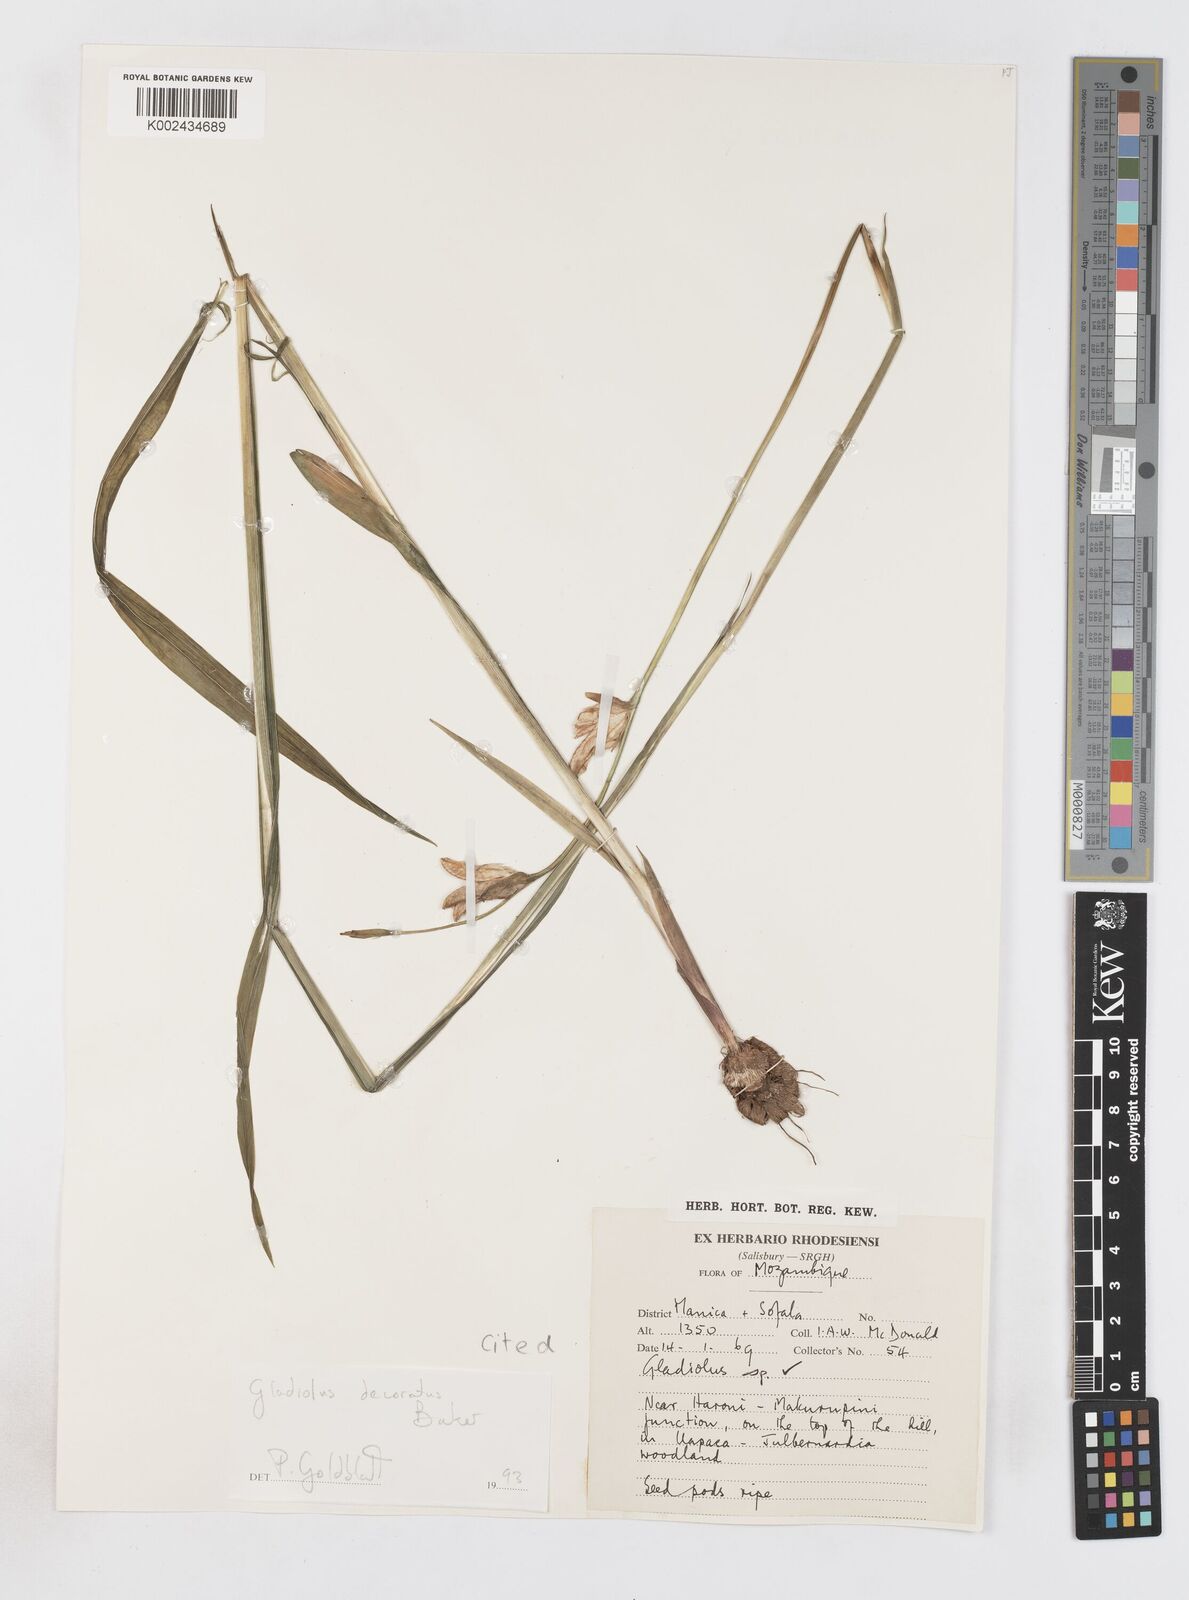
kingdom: Plantae
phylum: Tracheophyta
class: Liliopsida
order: Asparagales
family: Iridaceae
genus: Gladiolus
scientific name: Gladiolus decoratus
